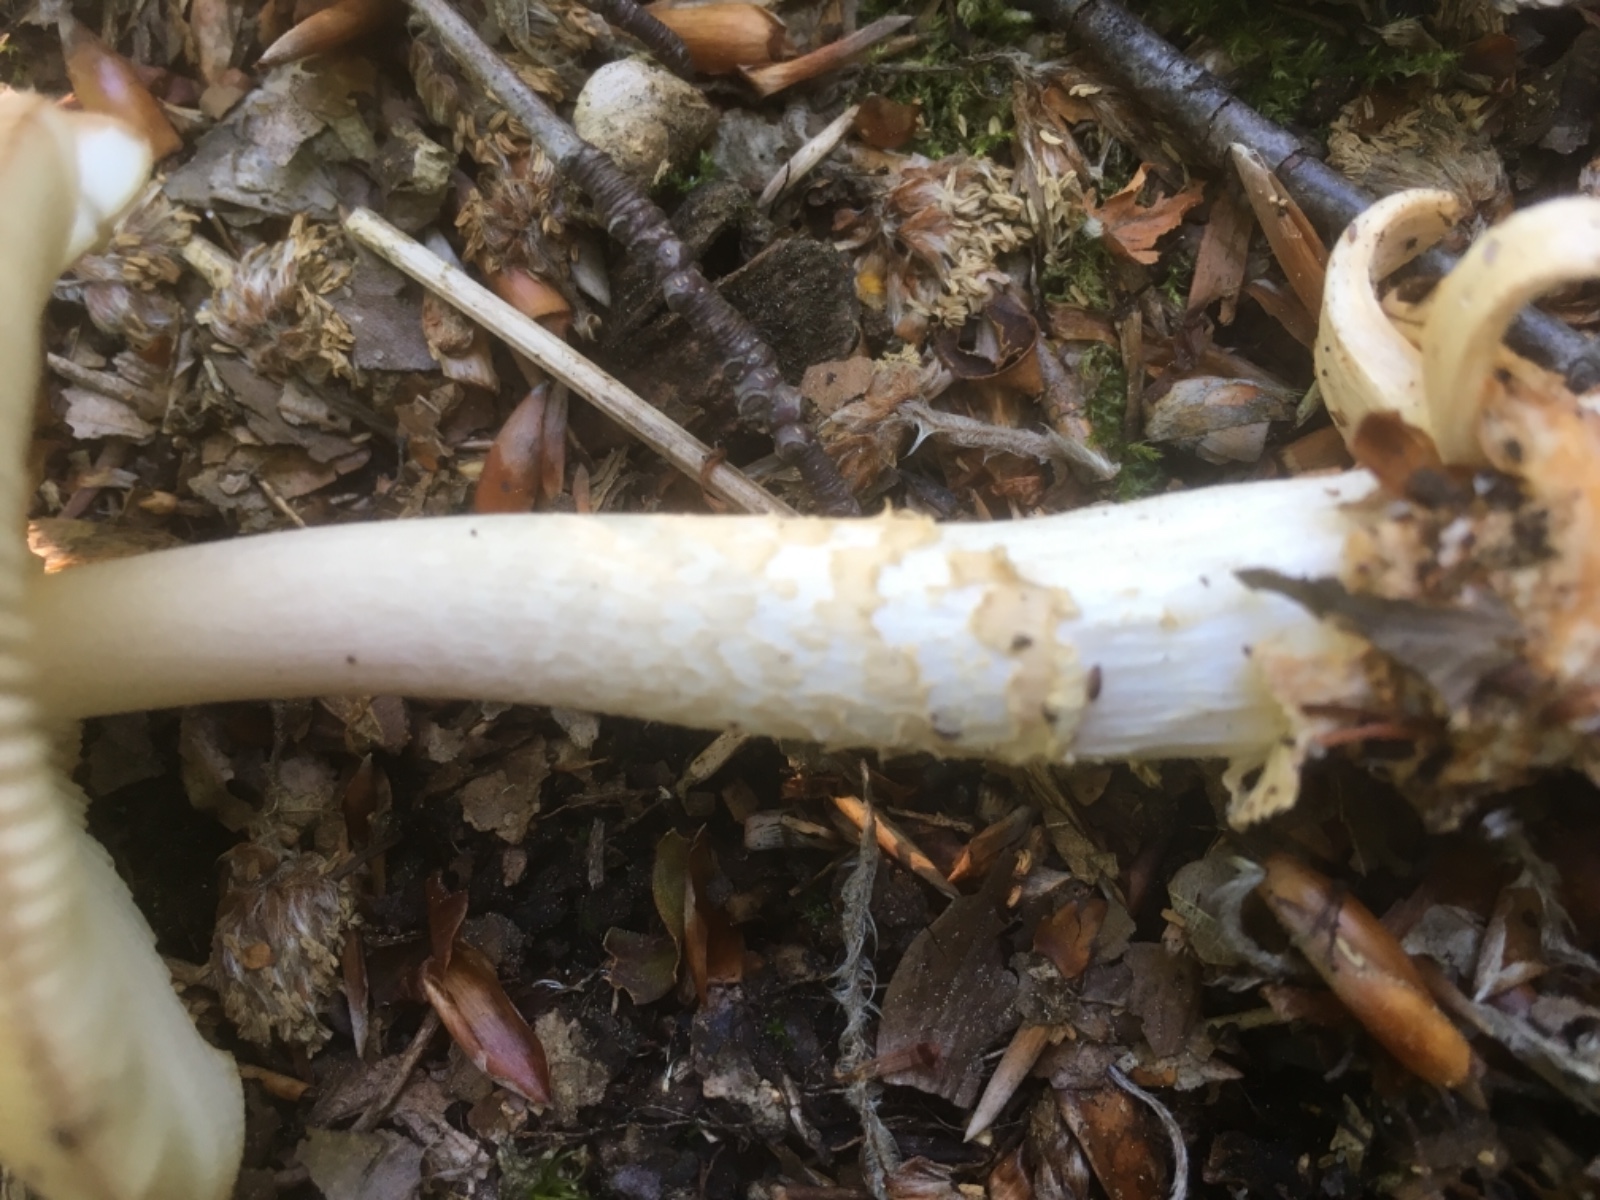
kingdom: Fungi
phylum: Basidiomycota
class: Agaricomycetes
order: Agaricales
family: Amanitaceae
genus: Amanita
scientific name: Amanita
